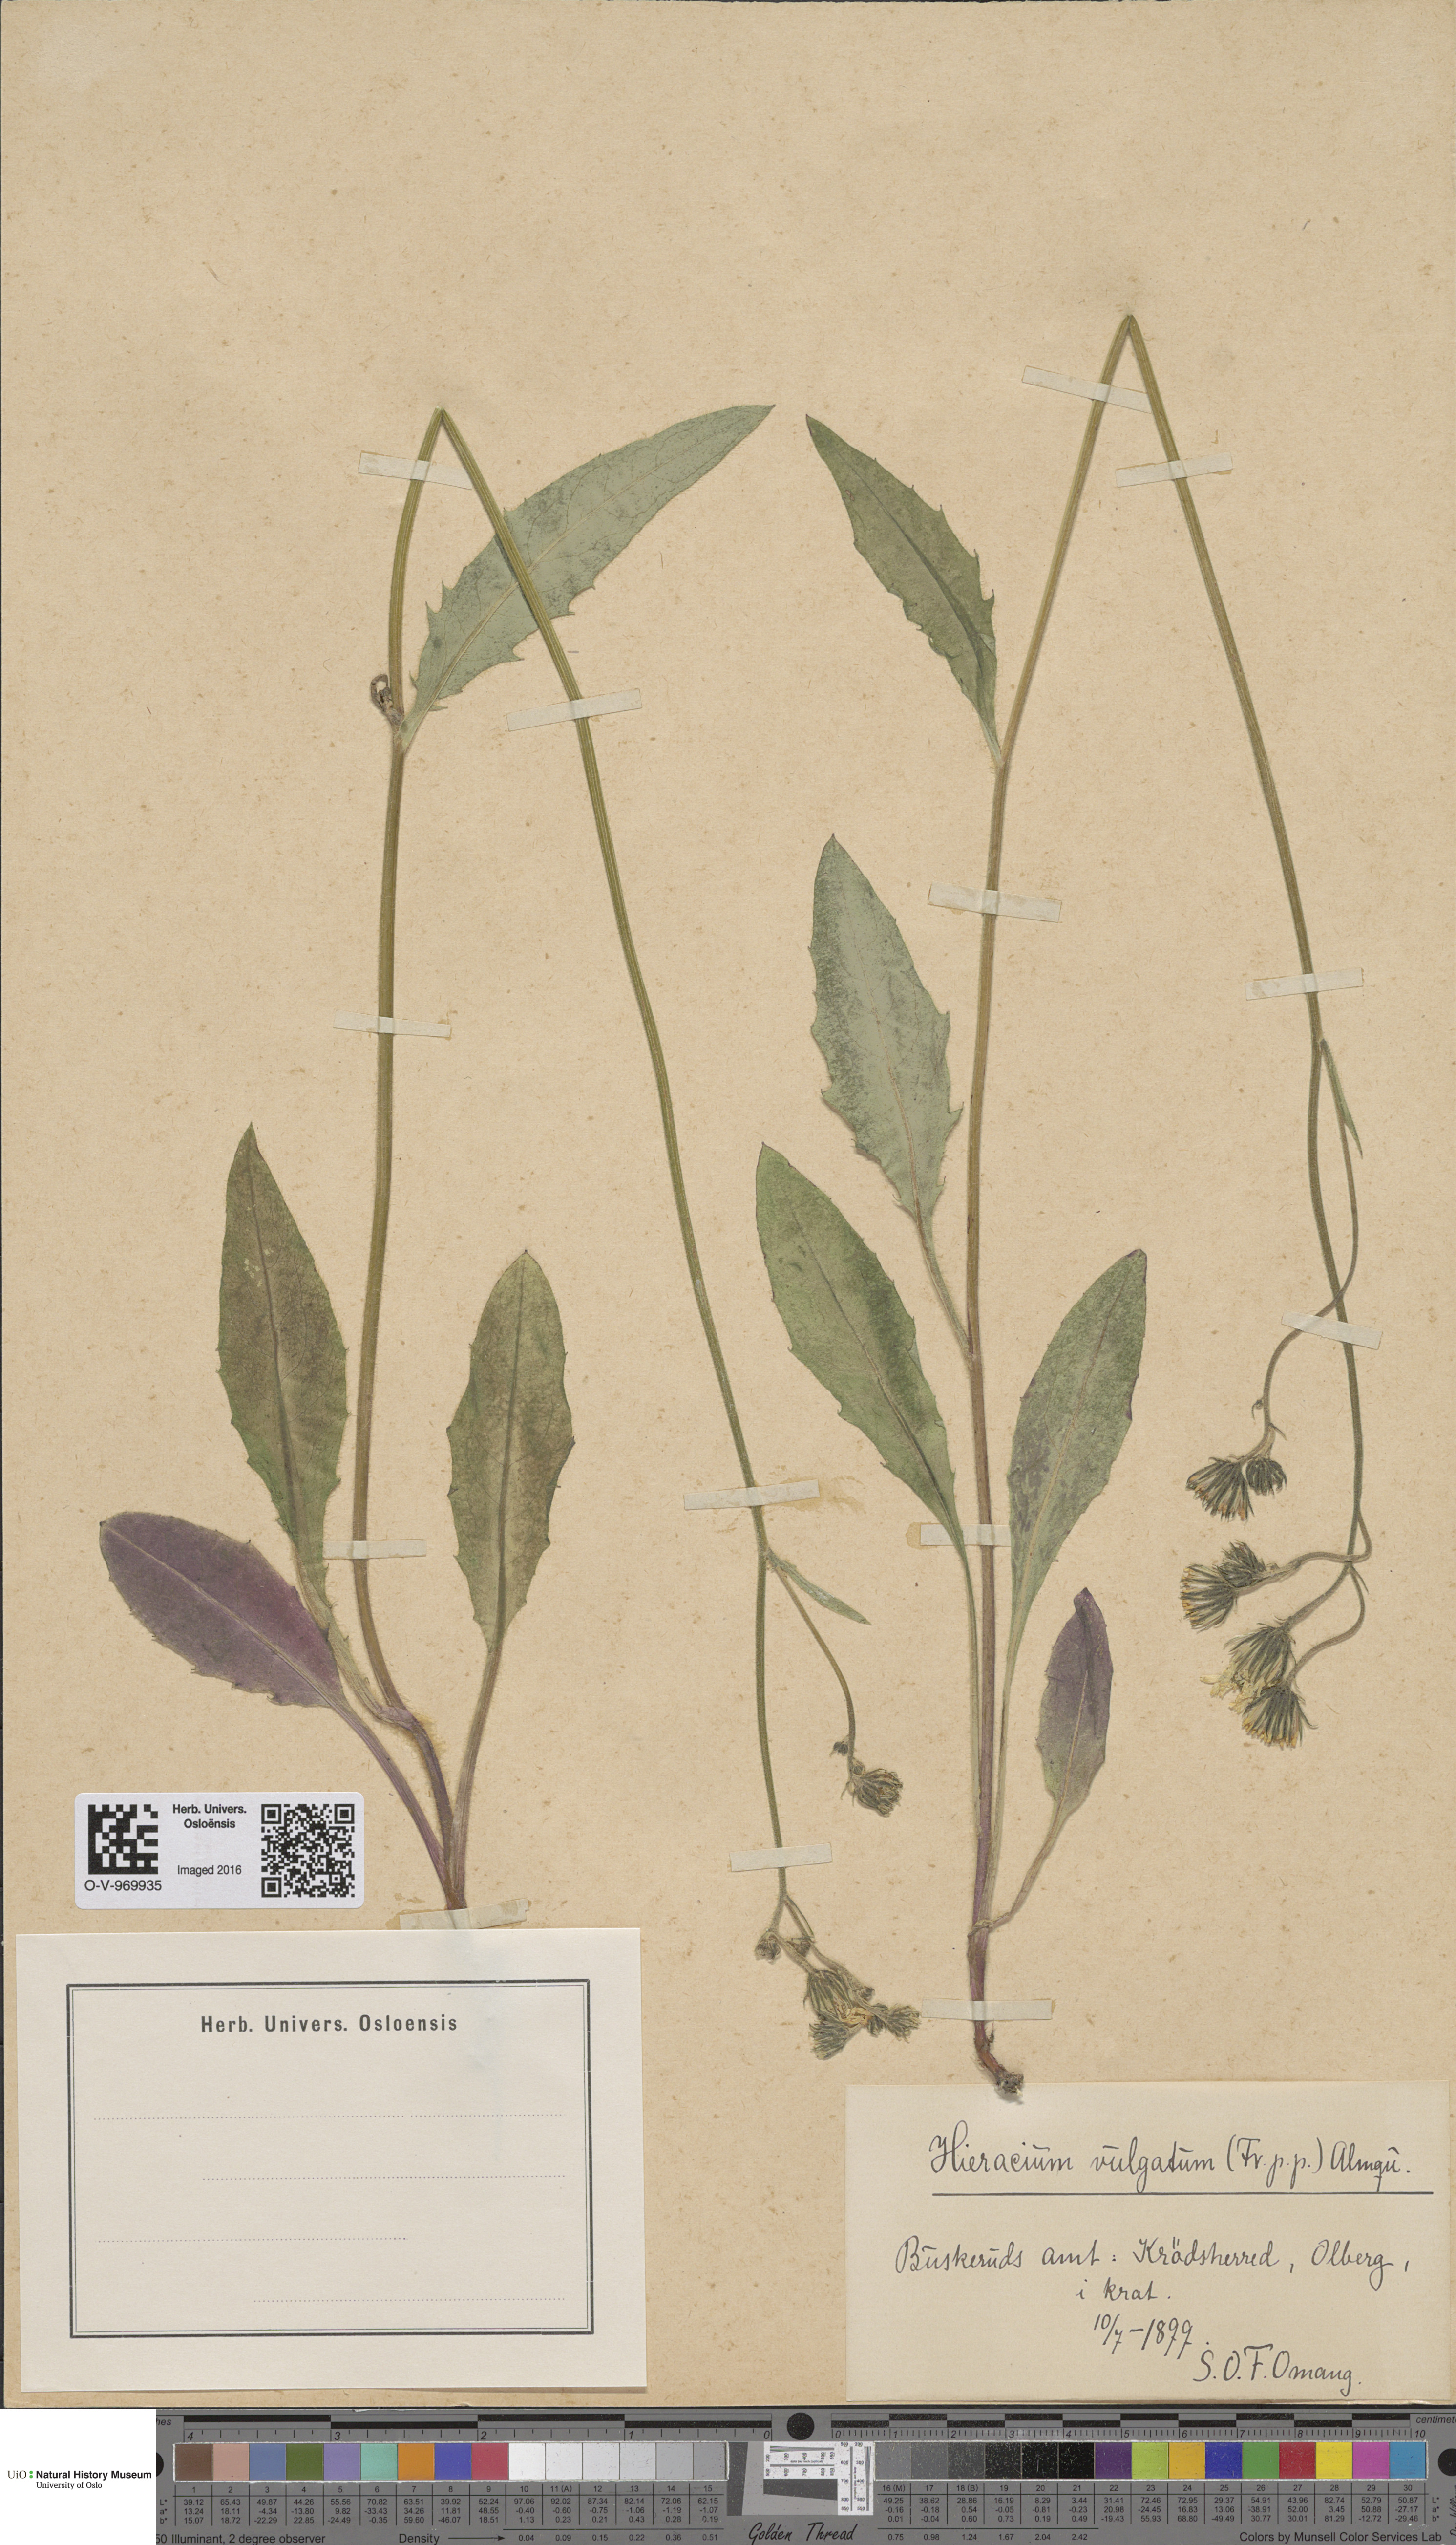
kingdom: Plantae
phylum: Tracheophyta
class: Magnoliopsida
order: Asterales
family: Asteraceae
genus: Hieracium
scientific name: Hieracium vulgatum
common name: Common hawkweed
